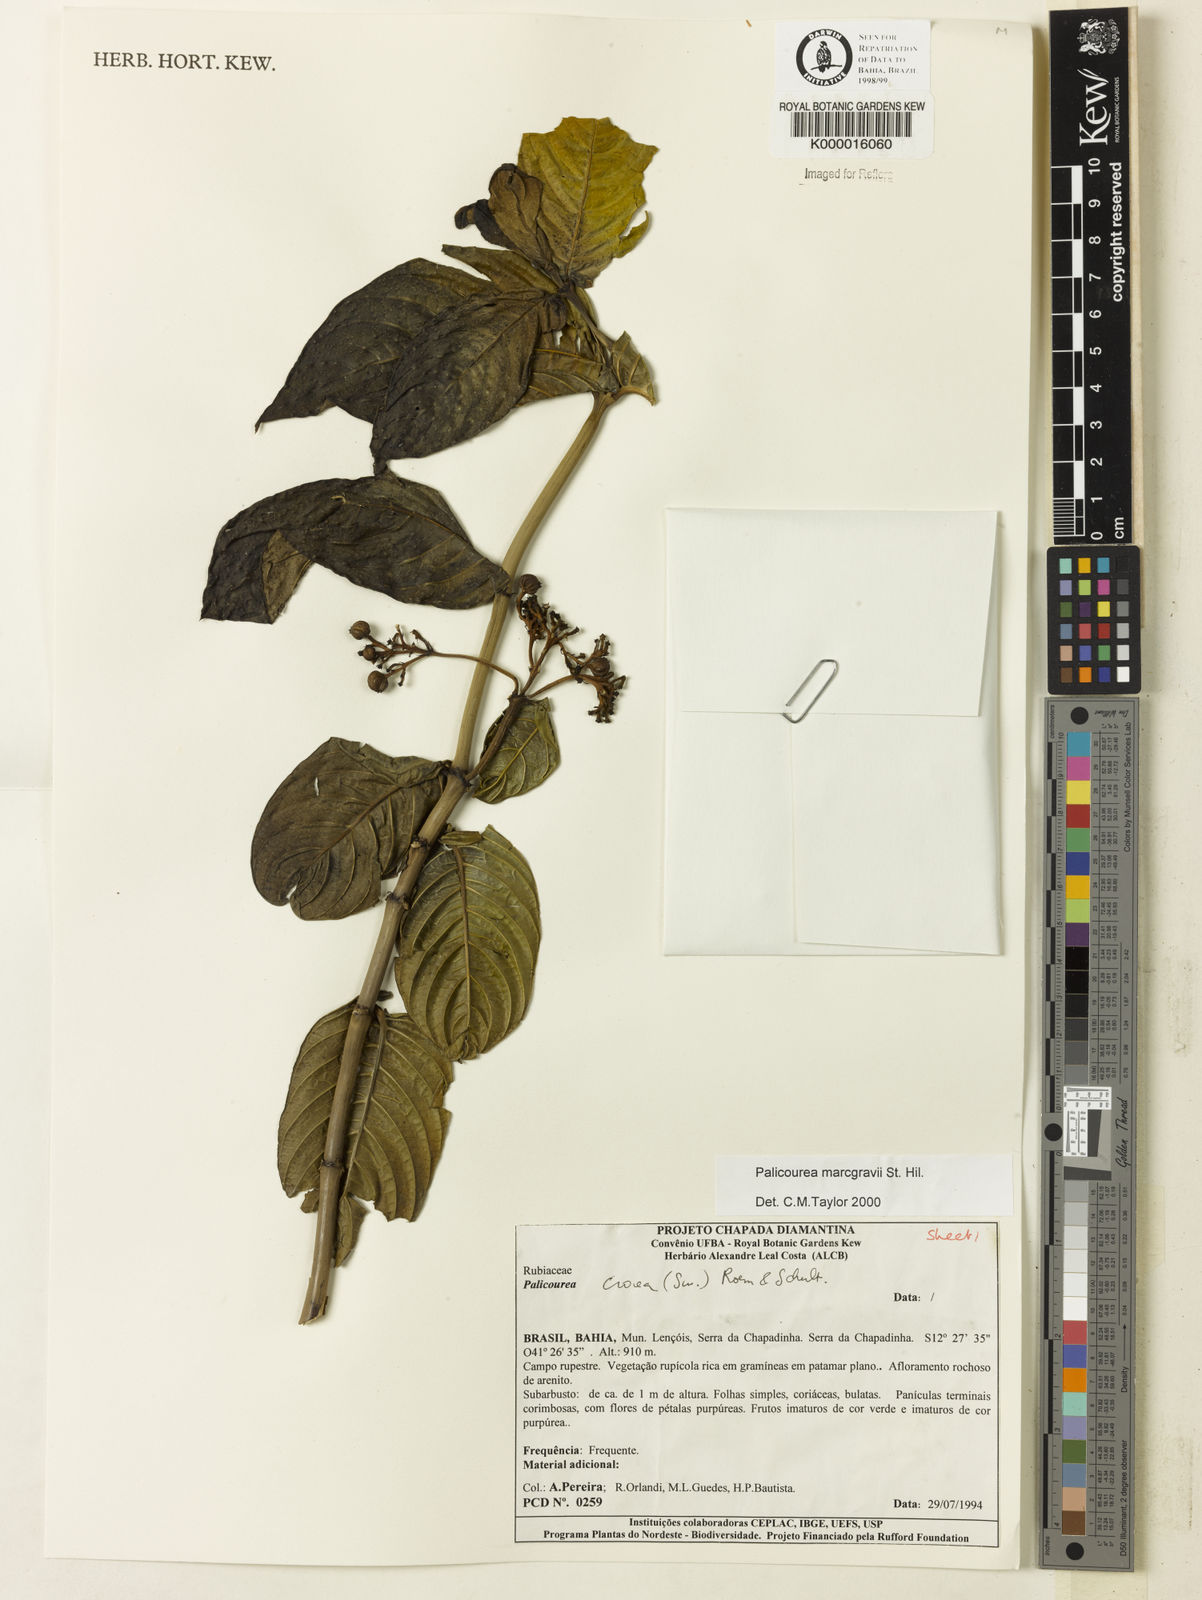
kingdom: Plantae
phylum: Tracheophyta
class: Magnoliopsida
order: Gentianales
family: Rubiaceae
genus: Palicourea
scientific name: Palicourea marcgravii
